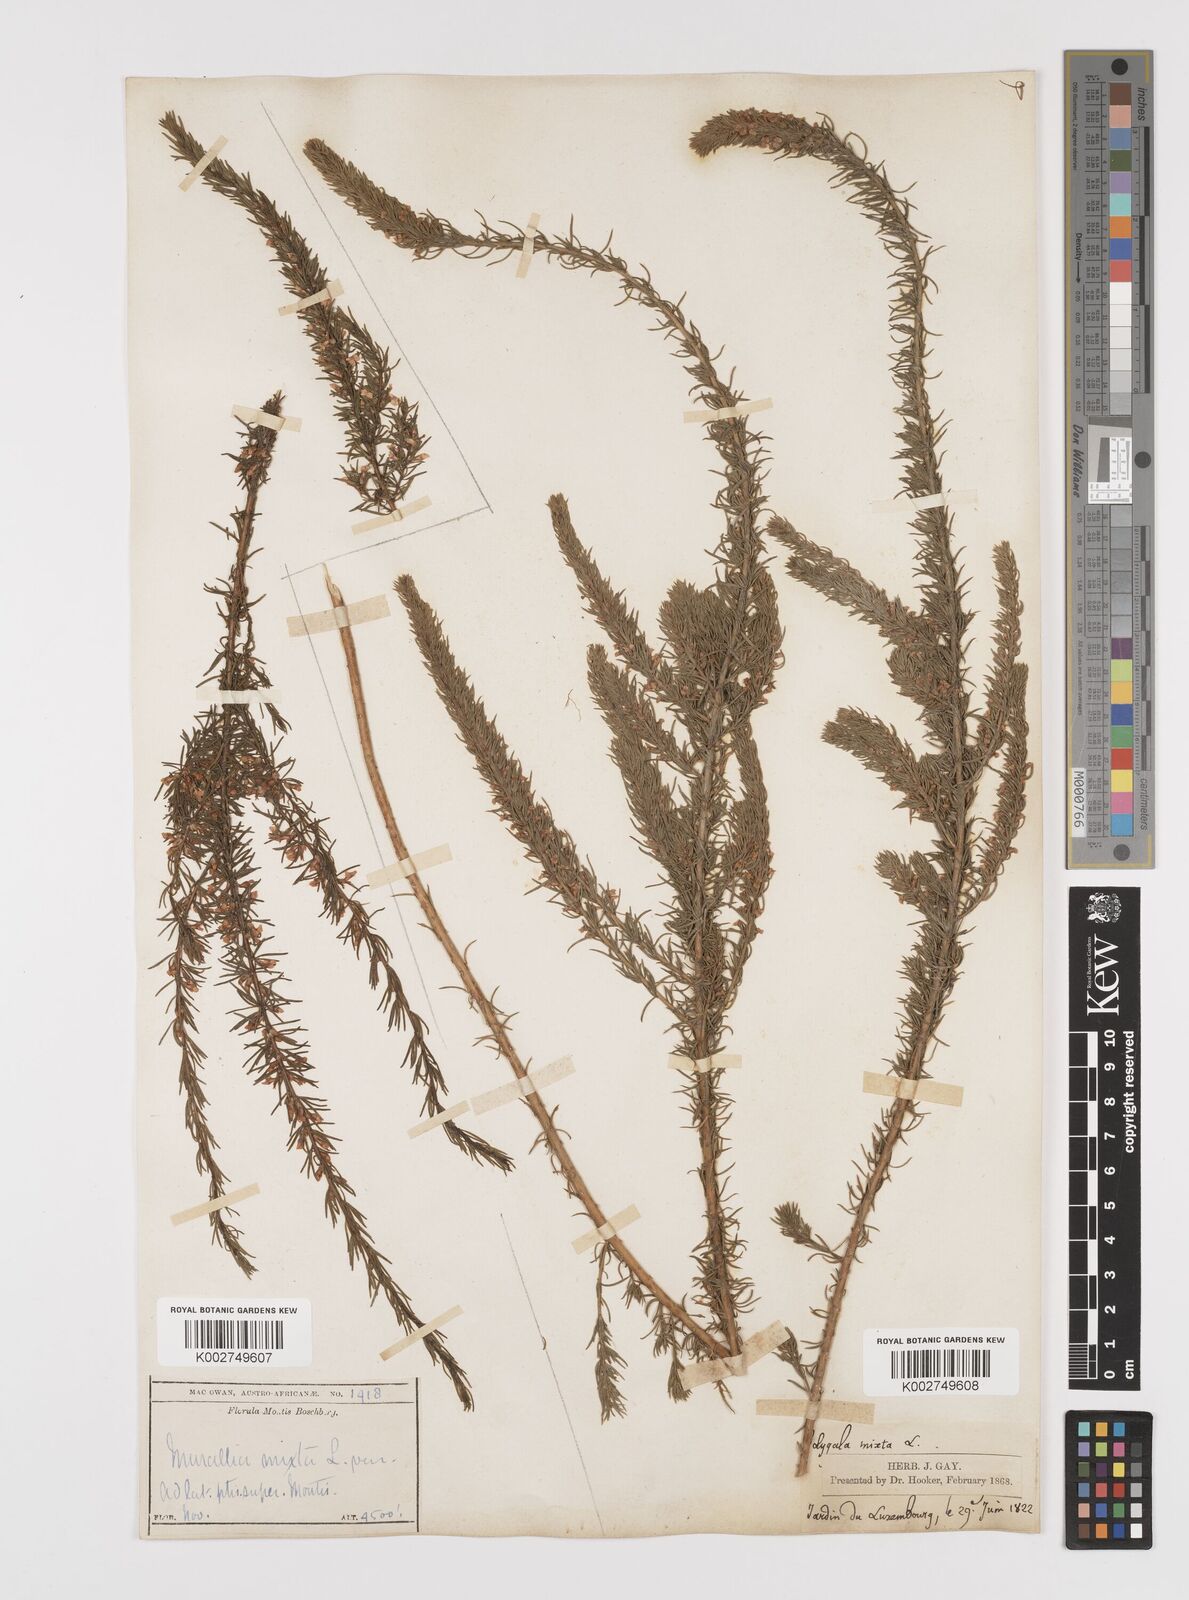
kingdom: Plantae
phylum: Tracheophyta
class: Magnoliopsida
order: Fabales
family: Polygalaceae
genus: Muraltia
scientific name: Muraltia alopecuroides
